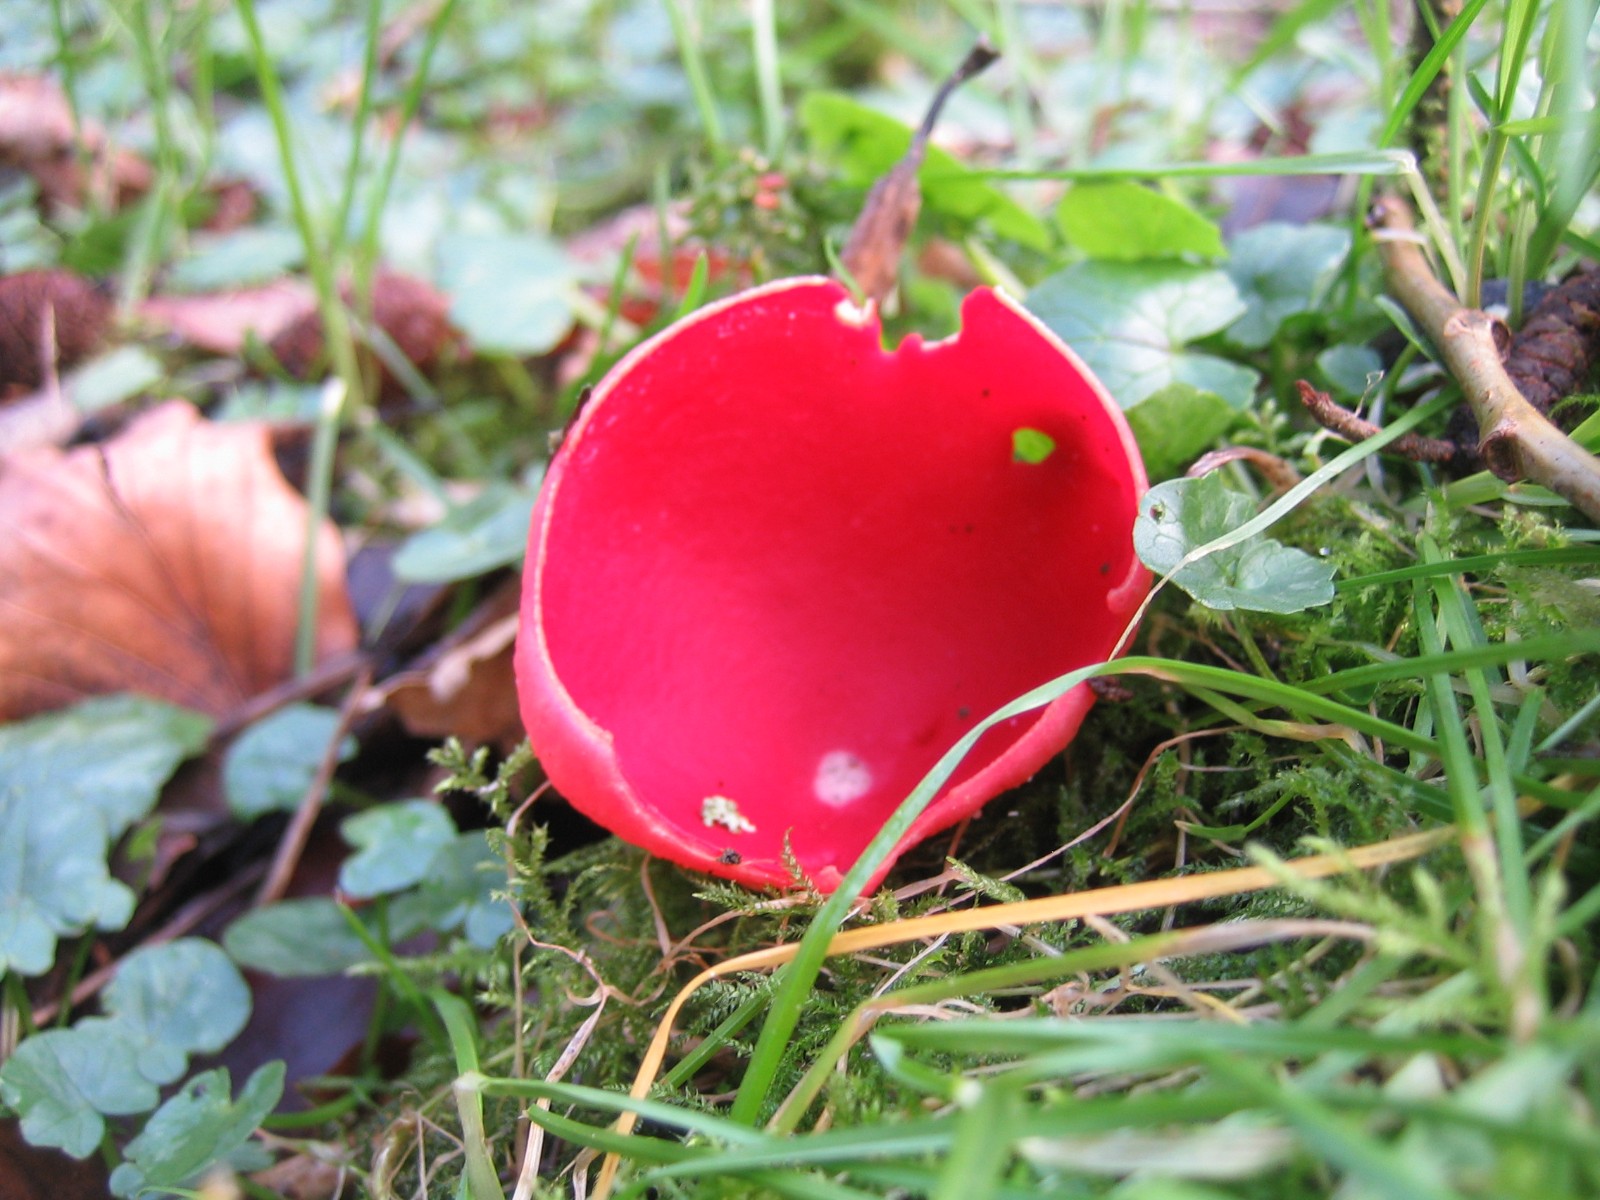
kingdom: Fungi
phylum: Ascomycota
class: Pezizomycetes
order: Pezizales
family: Sarcoscyphaceae
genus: Sarcoscypha
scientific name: Sarcoscypha austriaca
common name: krølhåret pragtbæger
